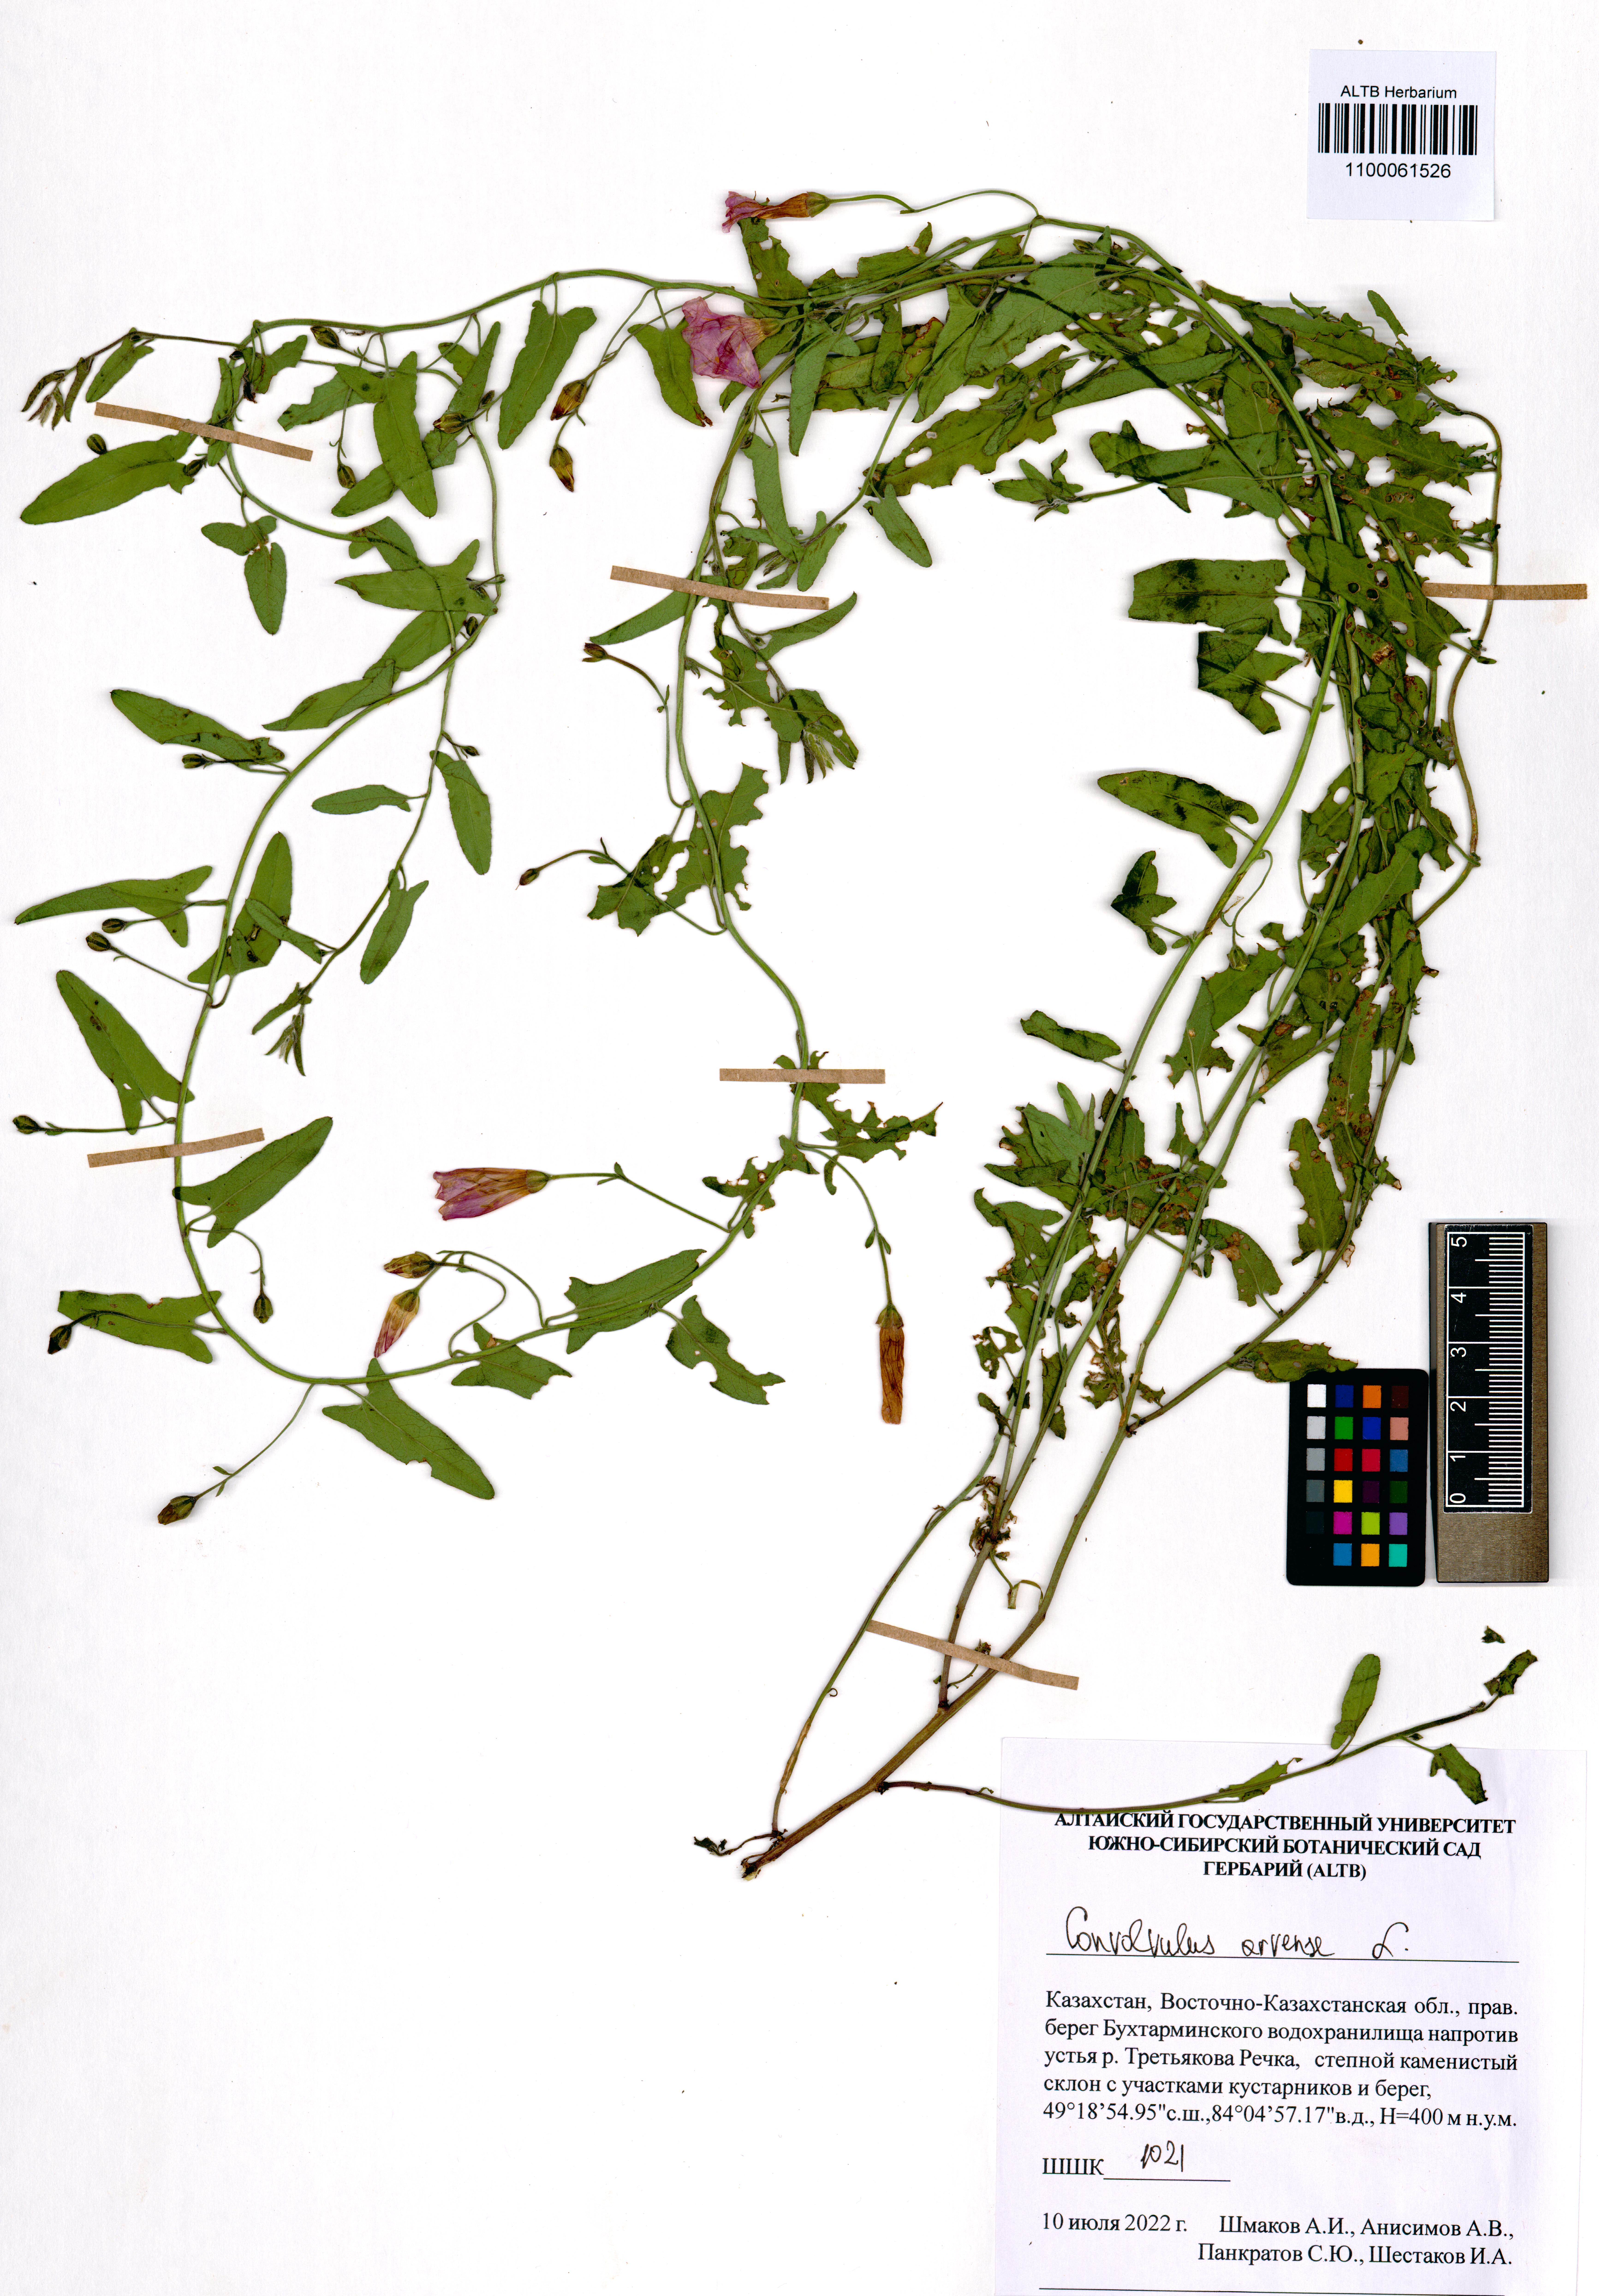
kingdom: Plantae
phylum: Tracheophyta
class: Magnoliopsida
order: Solanales
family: Convolvulaceae
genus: Convolvulus
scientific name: Convolvulus arvensis
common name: Field bindweed
